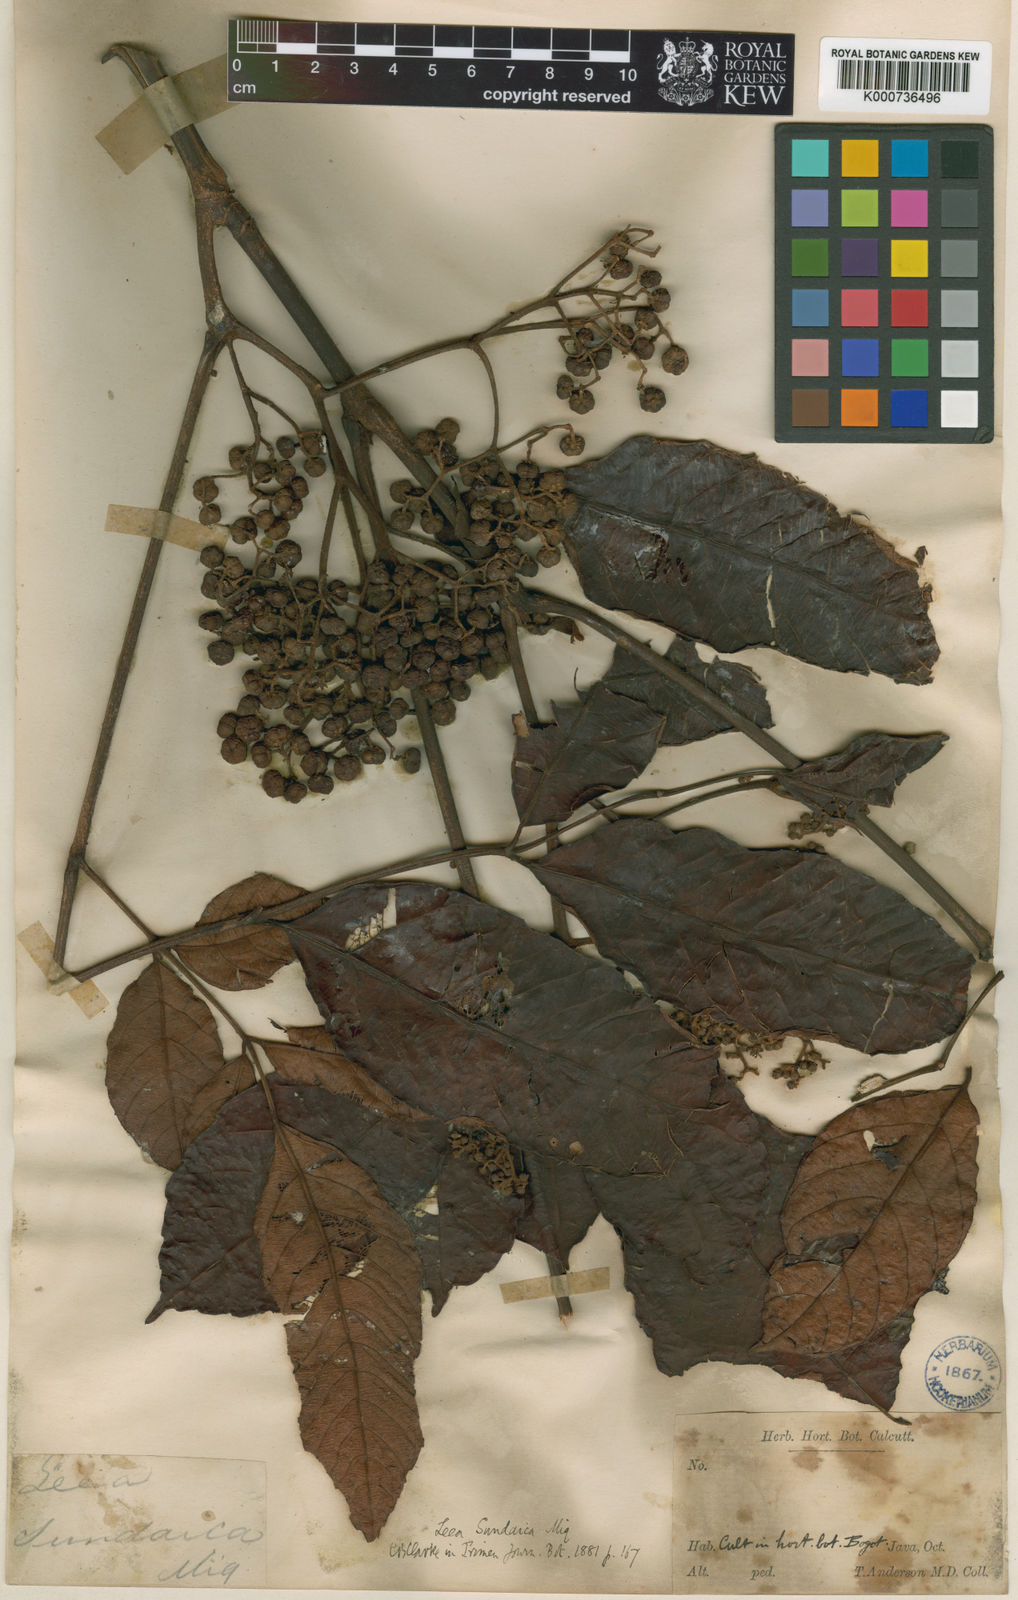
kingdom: Plantae
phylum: Tracheophyta
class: Magnoliopsida
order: Vitales
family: Vitaceae
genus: Leea
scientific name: Leea indica
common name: Bandicoot-berry
